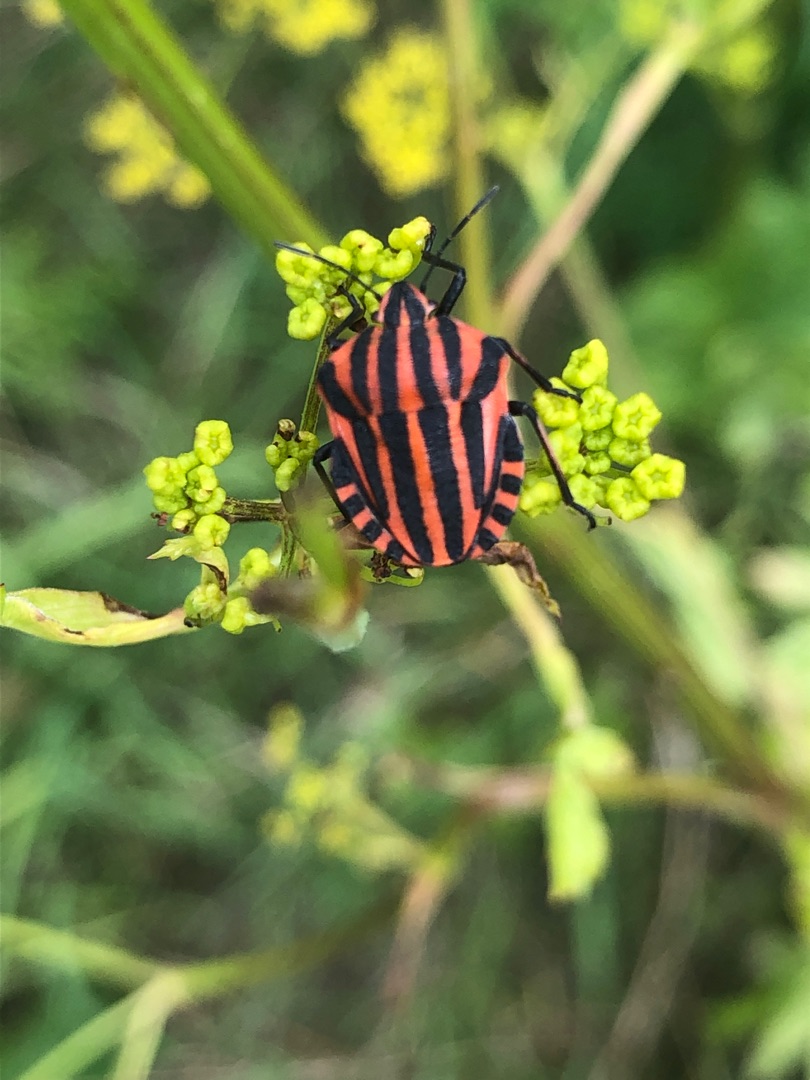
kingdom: Animalia
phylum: Arthropoda
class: Insecta
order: Hemiptera
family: Pentatomidae
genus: Graphosoma
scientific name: Graphosoma italicum
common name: Stribetæge
